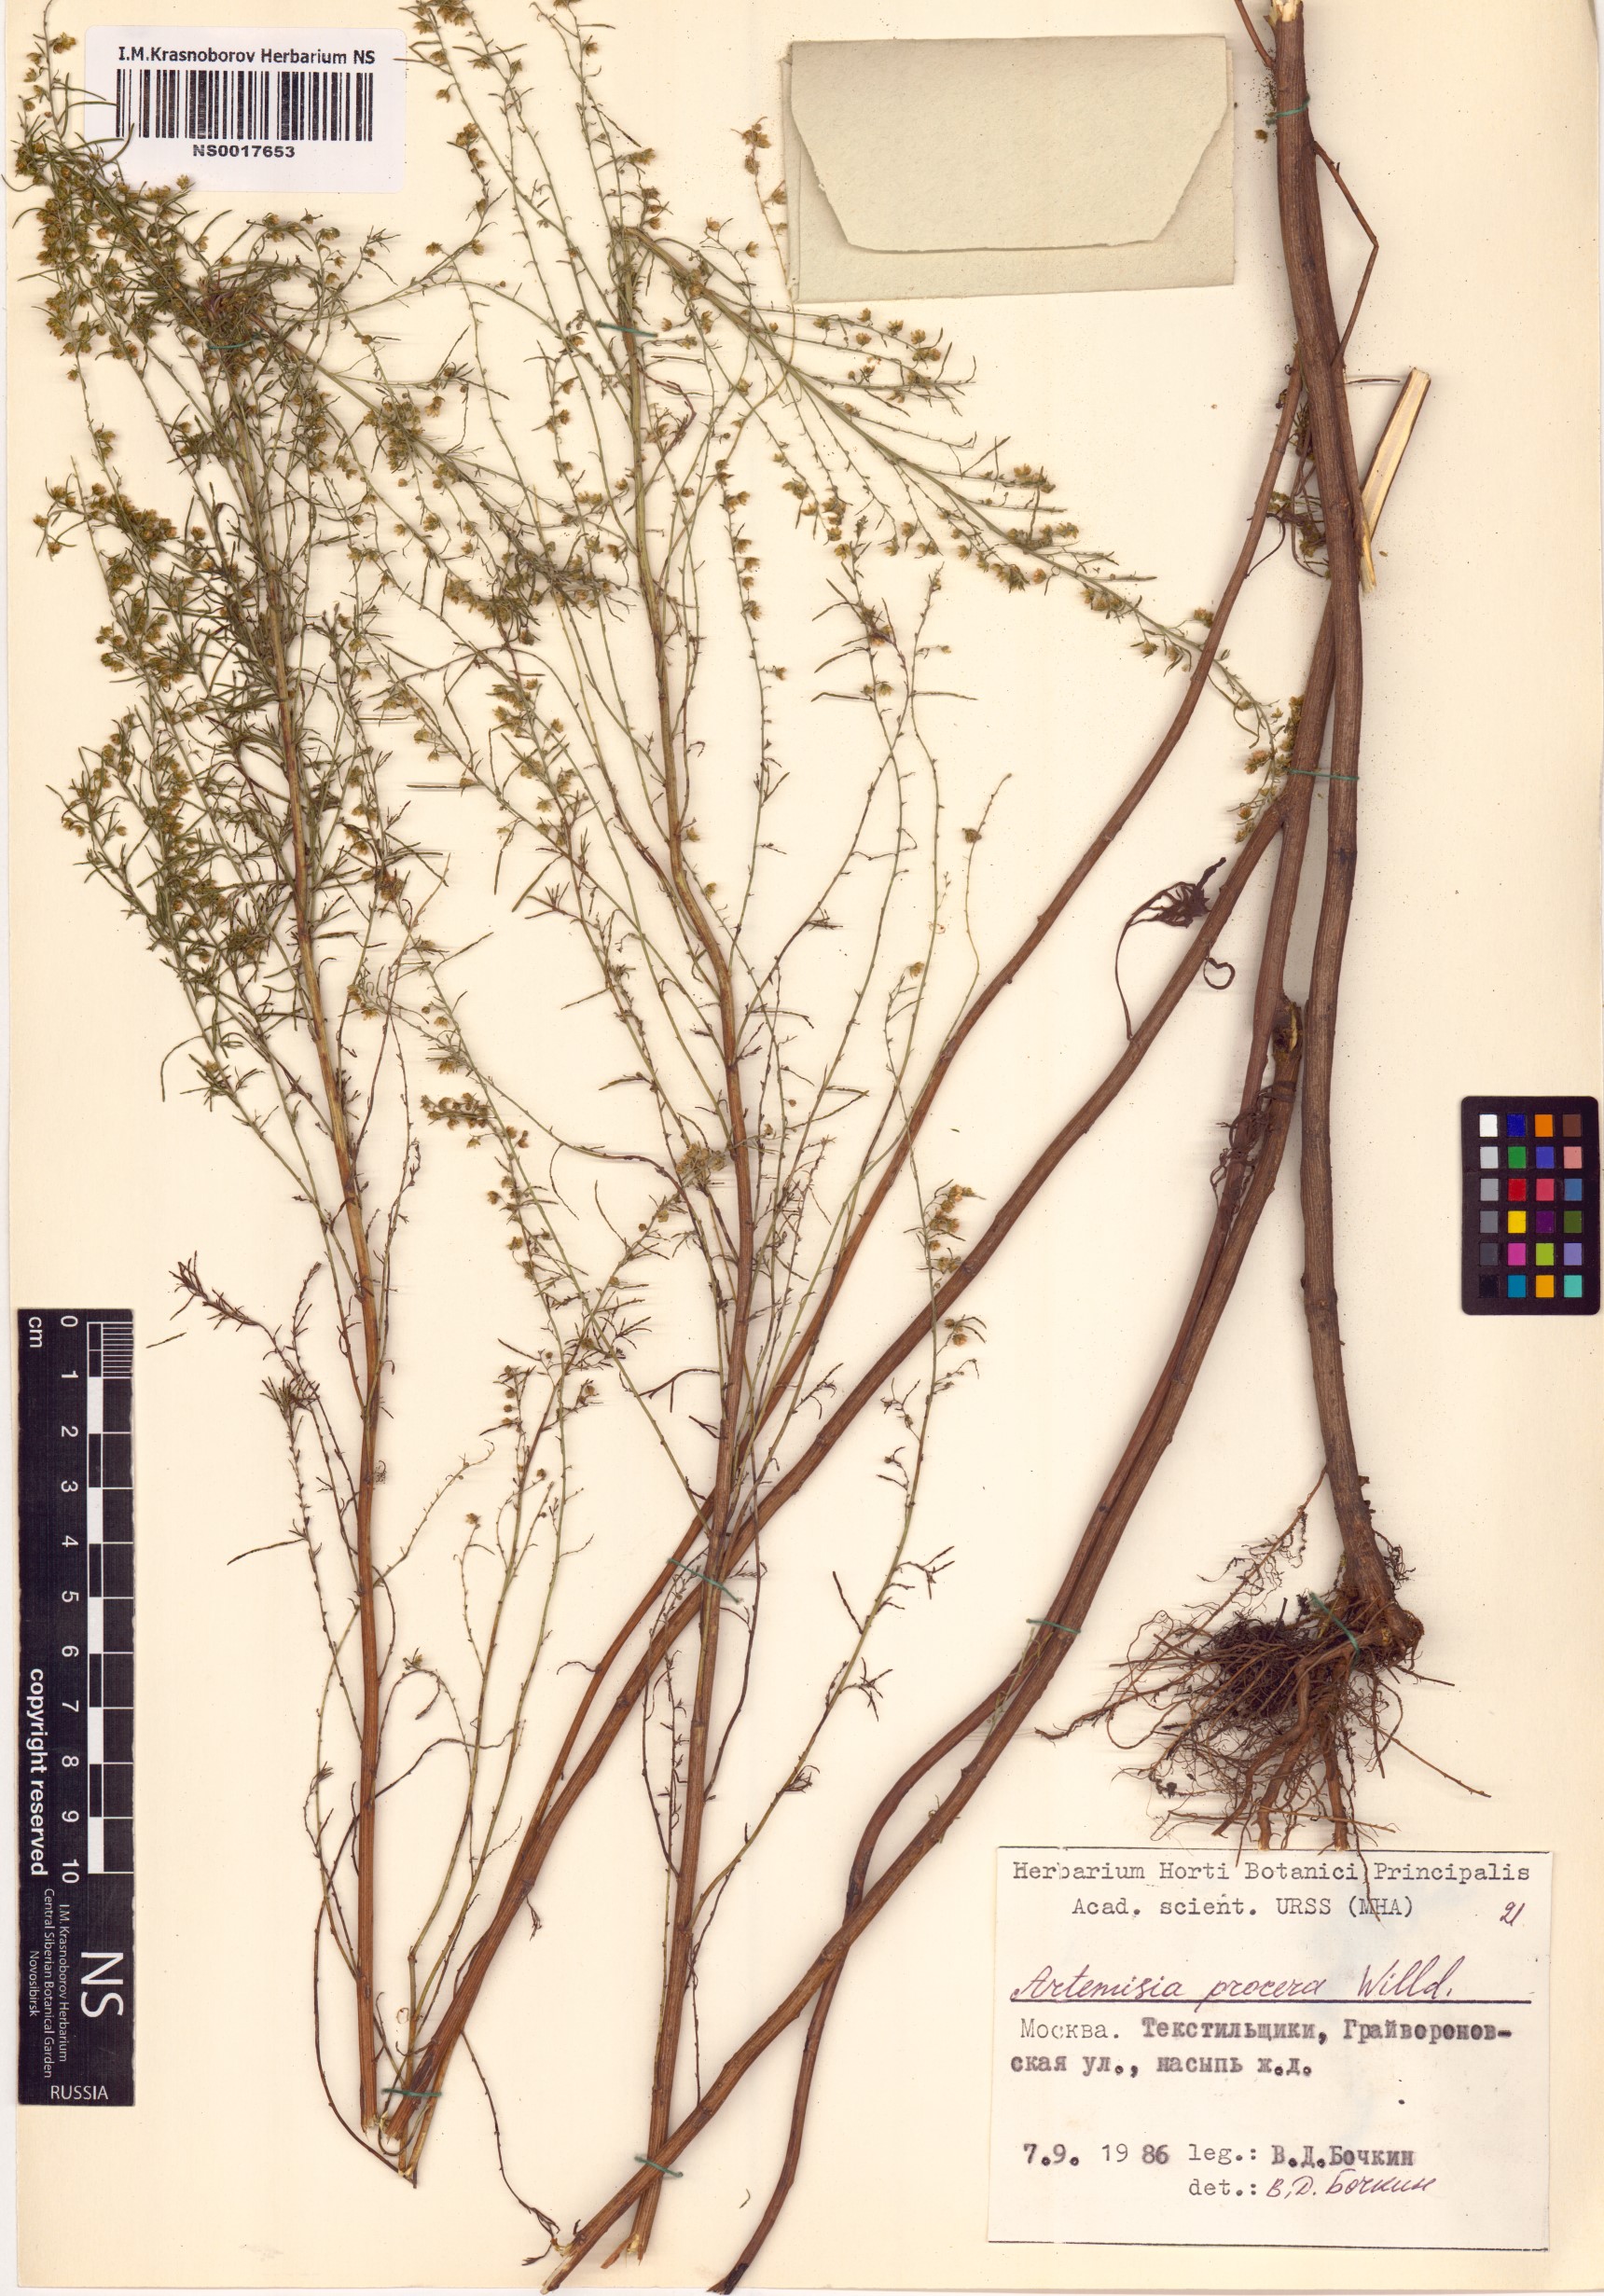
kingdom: Plantae
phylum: Tracheophyta
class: Magnoliopsida
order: Asterales
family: Asteraceae
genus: Artemisia
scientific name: Artemisia abrotanum
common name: Southernwood
